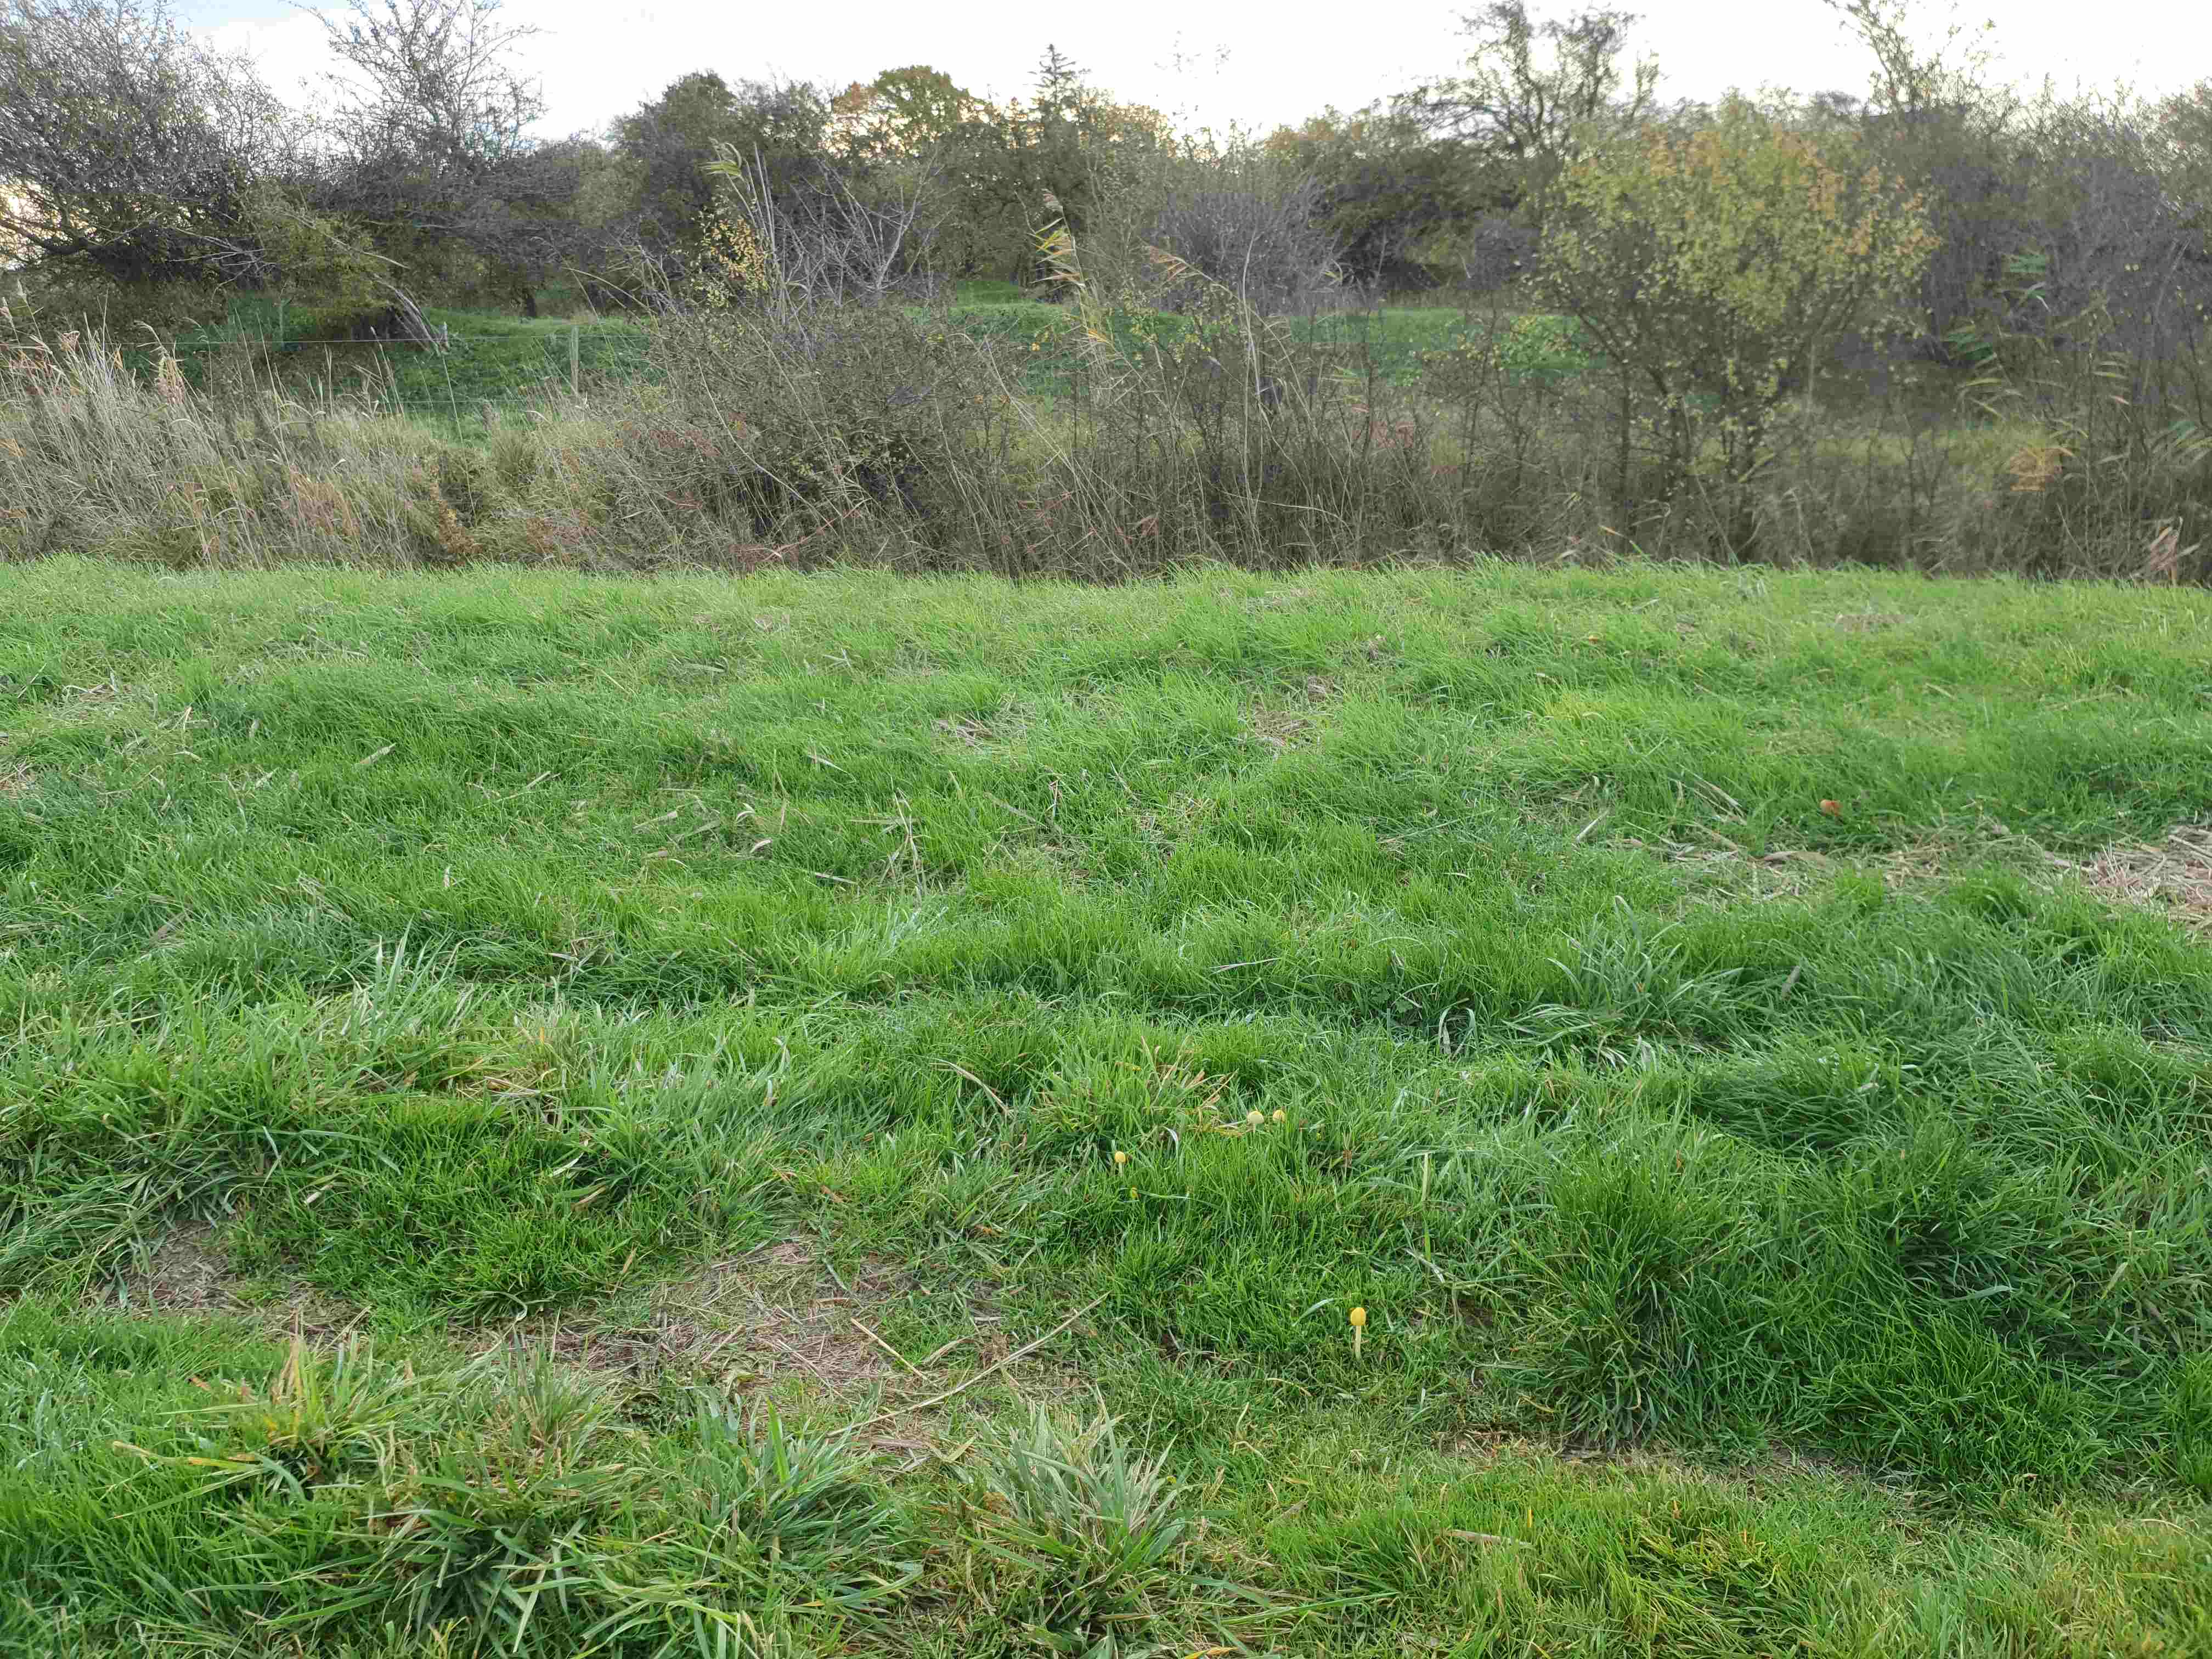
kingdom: Fungi
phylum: Basidiomycota
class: Agaricomycetes
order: Agaricales
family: Bolbitiaceae
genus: Bolbitius
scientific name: Bolbitius titubans
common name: almindelig gulhat
